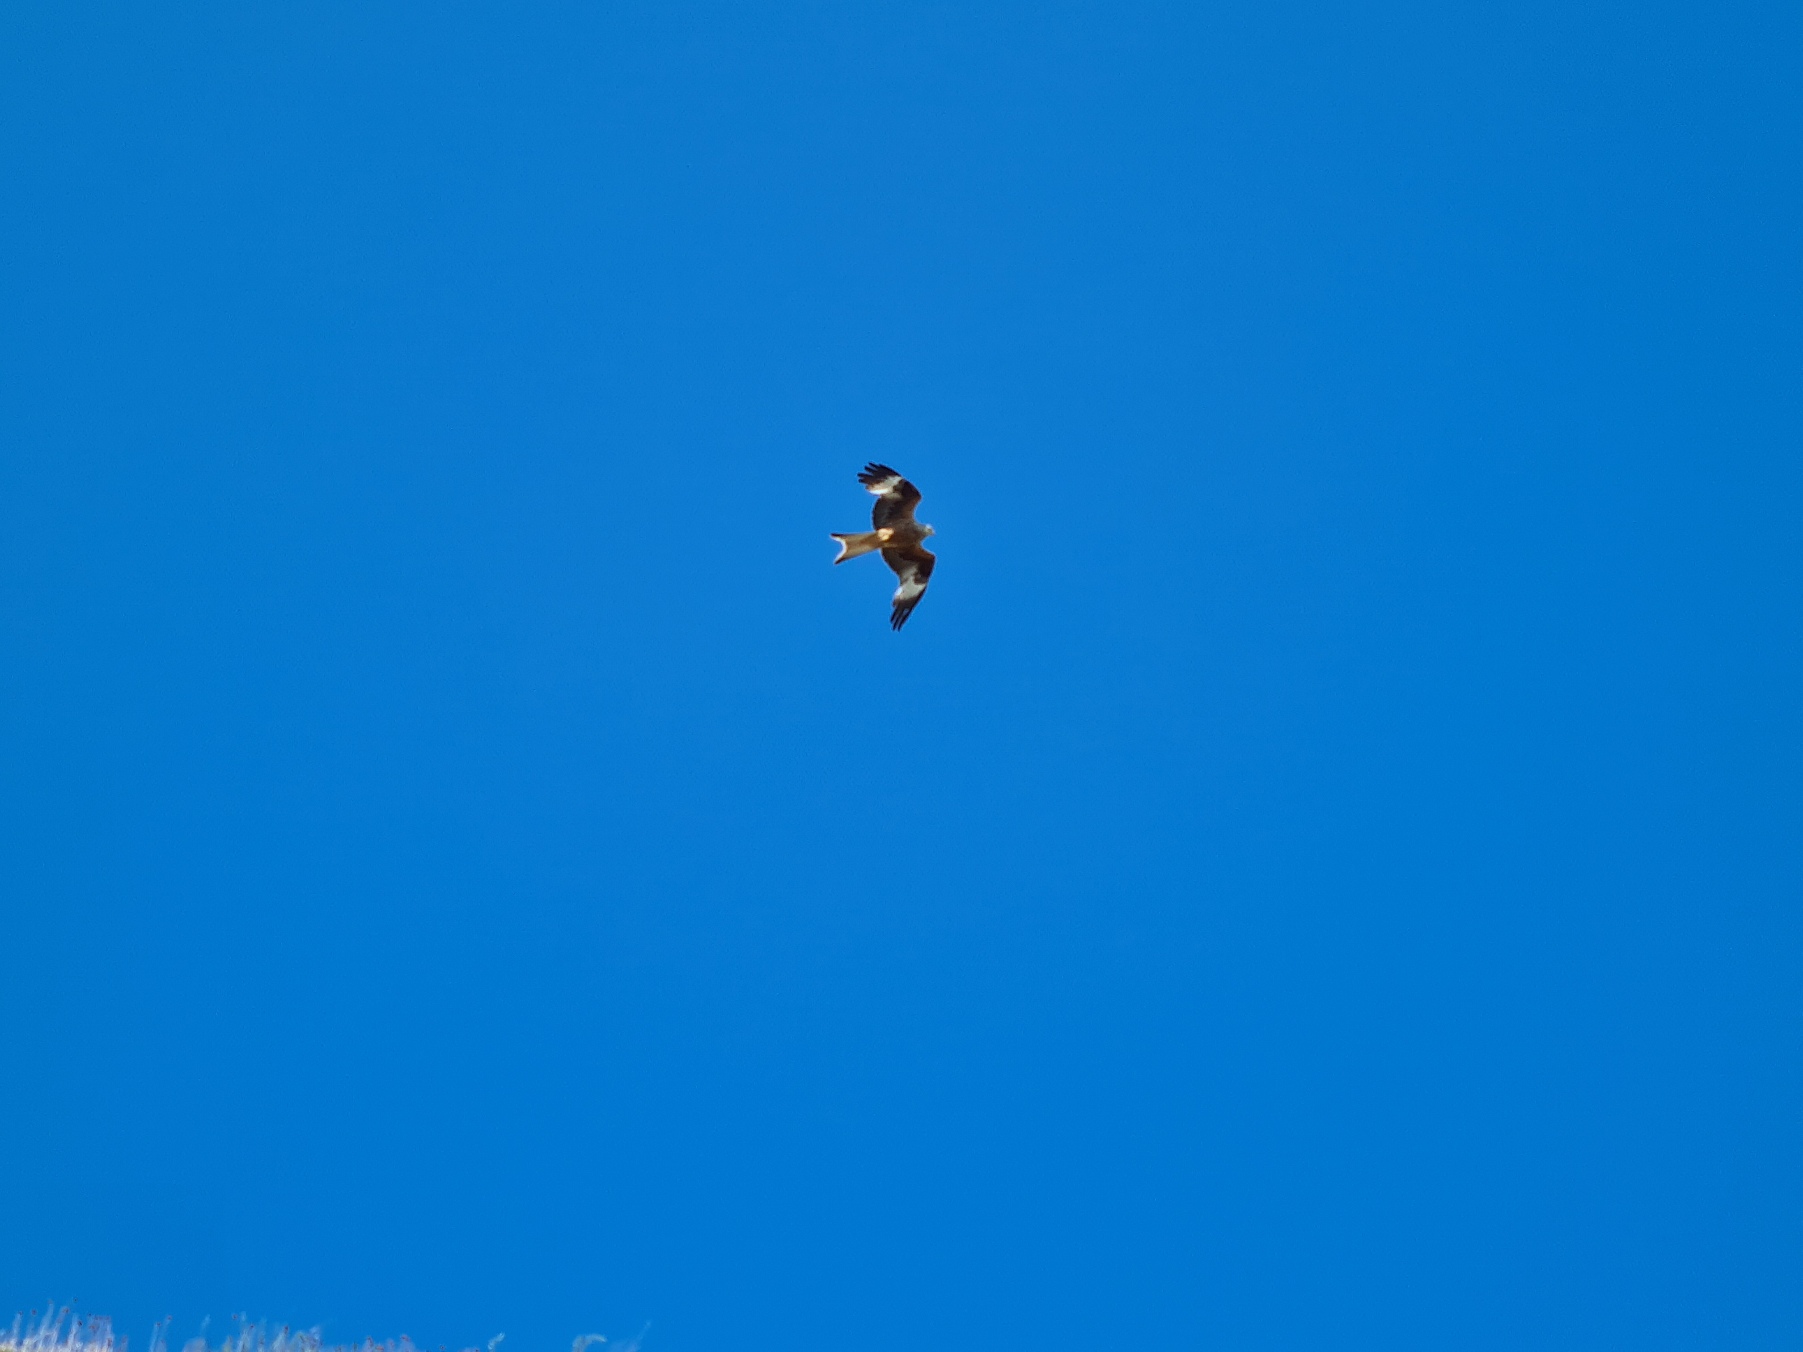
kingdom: Animalia
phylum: Chordata
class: Aves
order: Accipitriformes
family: Accipitridae
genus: Milvus
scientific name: Milvus milvus
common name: Rød glente
